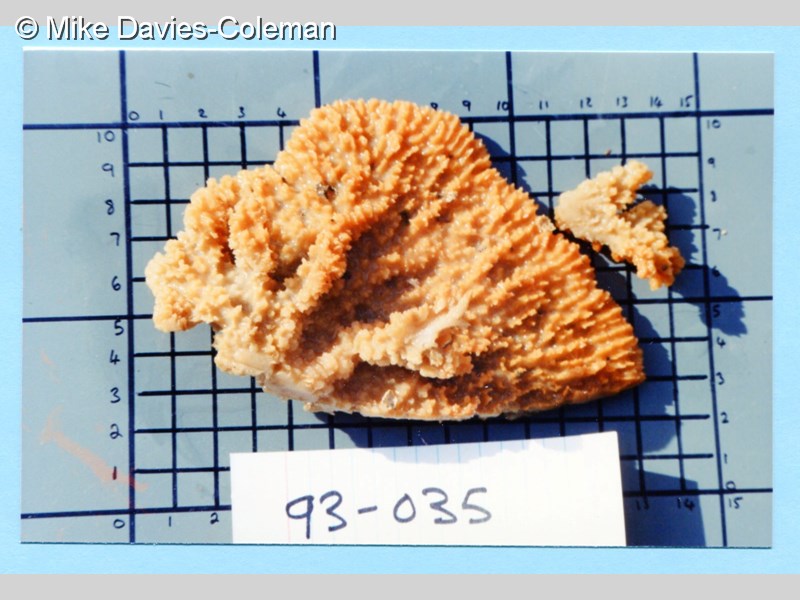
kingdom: Animalia
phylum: Porifera
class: Demospongiae
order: Suberitida
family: Halichondriidae
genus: Hymeniacidon
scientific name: Hymeniacidon
